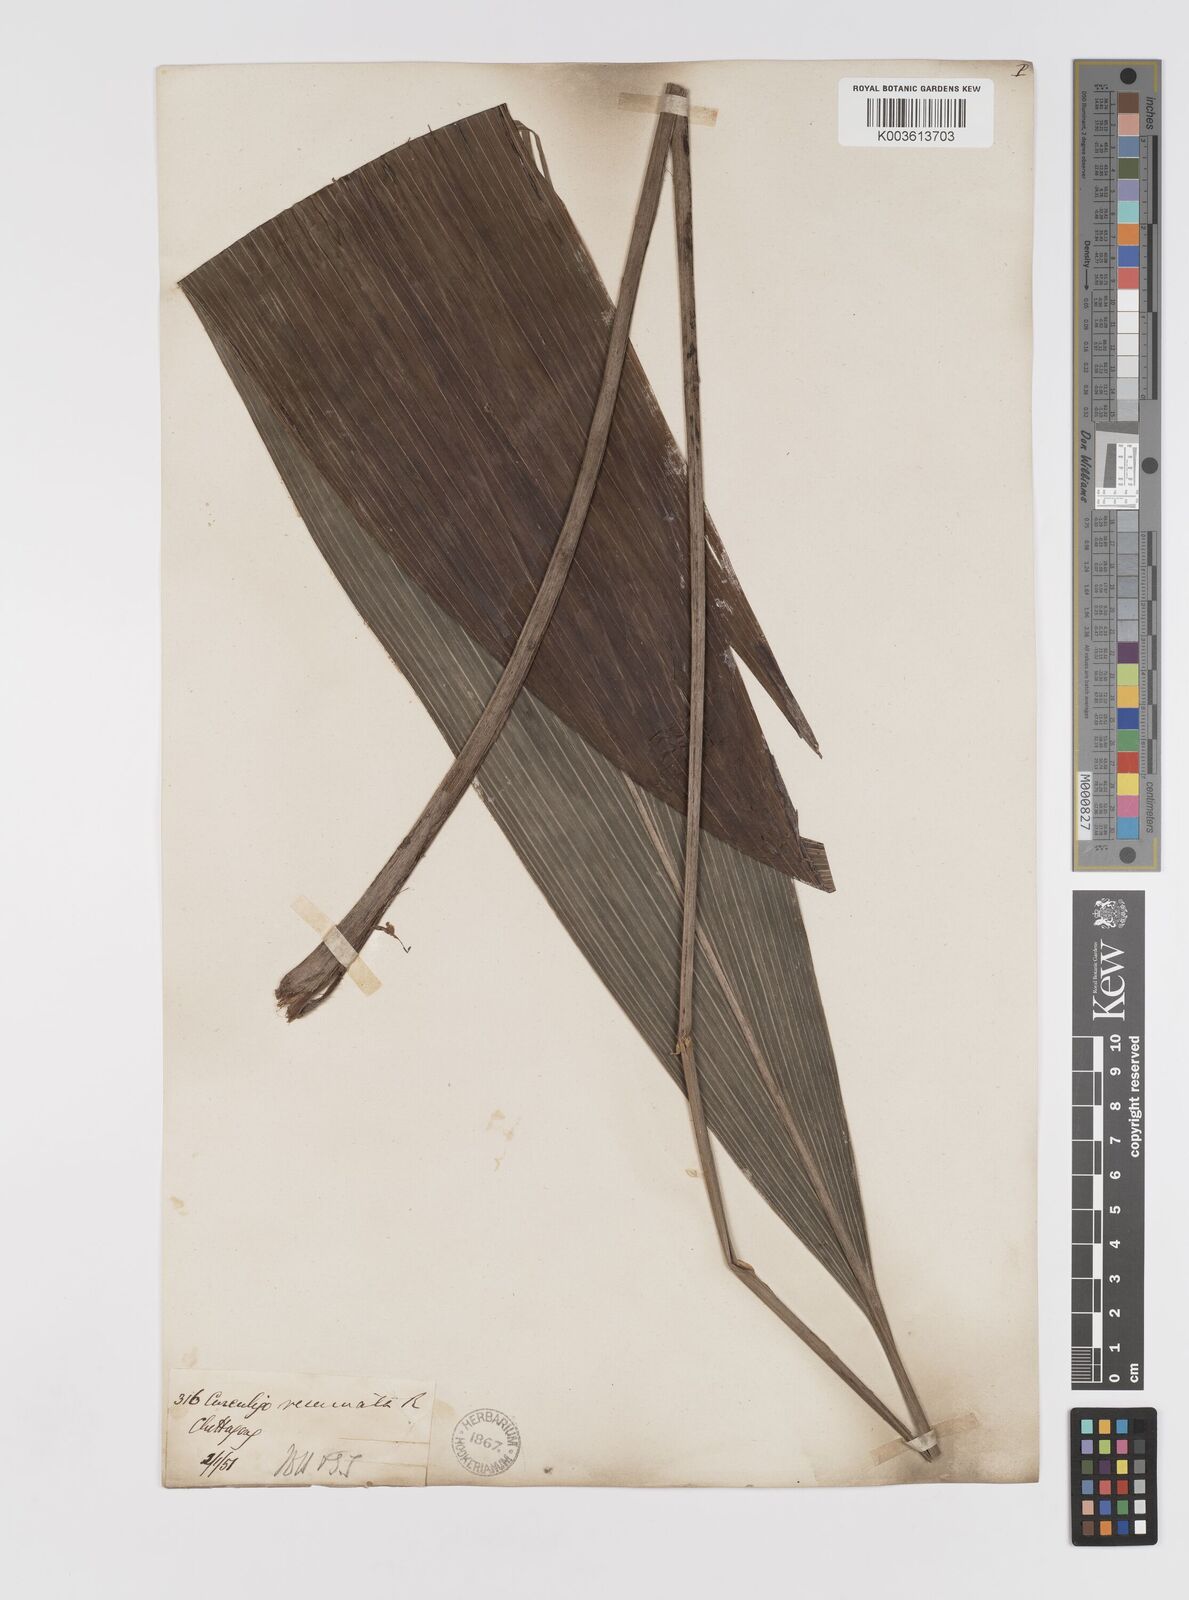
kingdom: Plantae
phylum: Tracheophyta
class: Liliopsida
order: Asparagales
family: Hypoxidaceae
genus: Curculigo
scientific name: Curculigo capitulata
